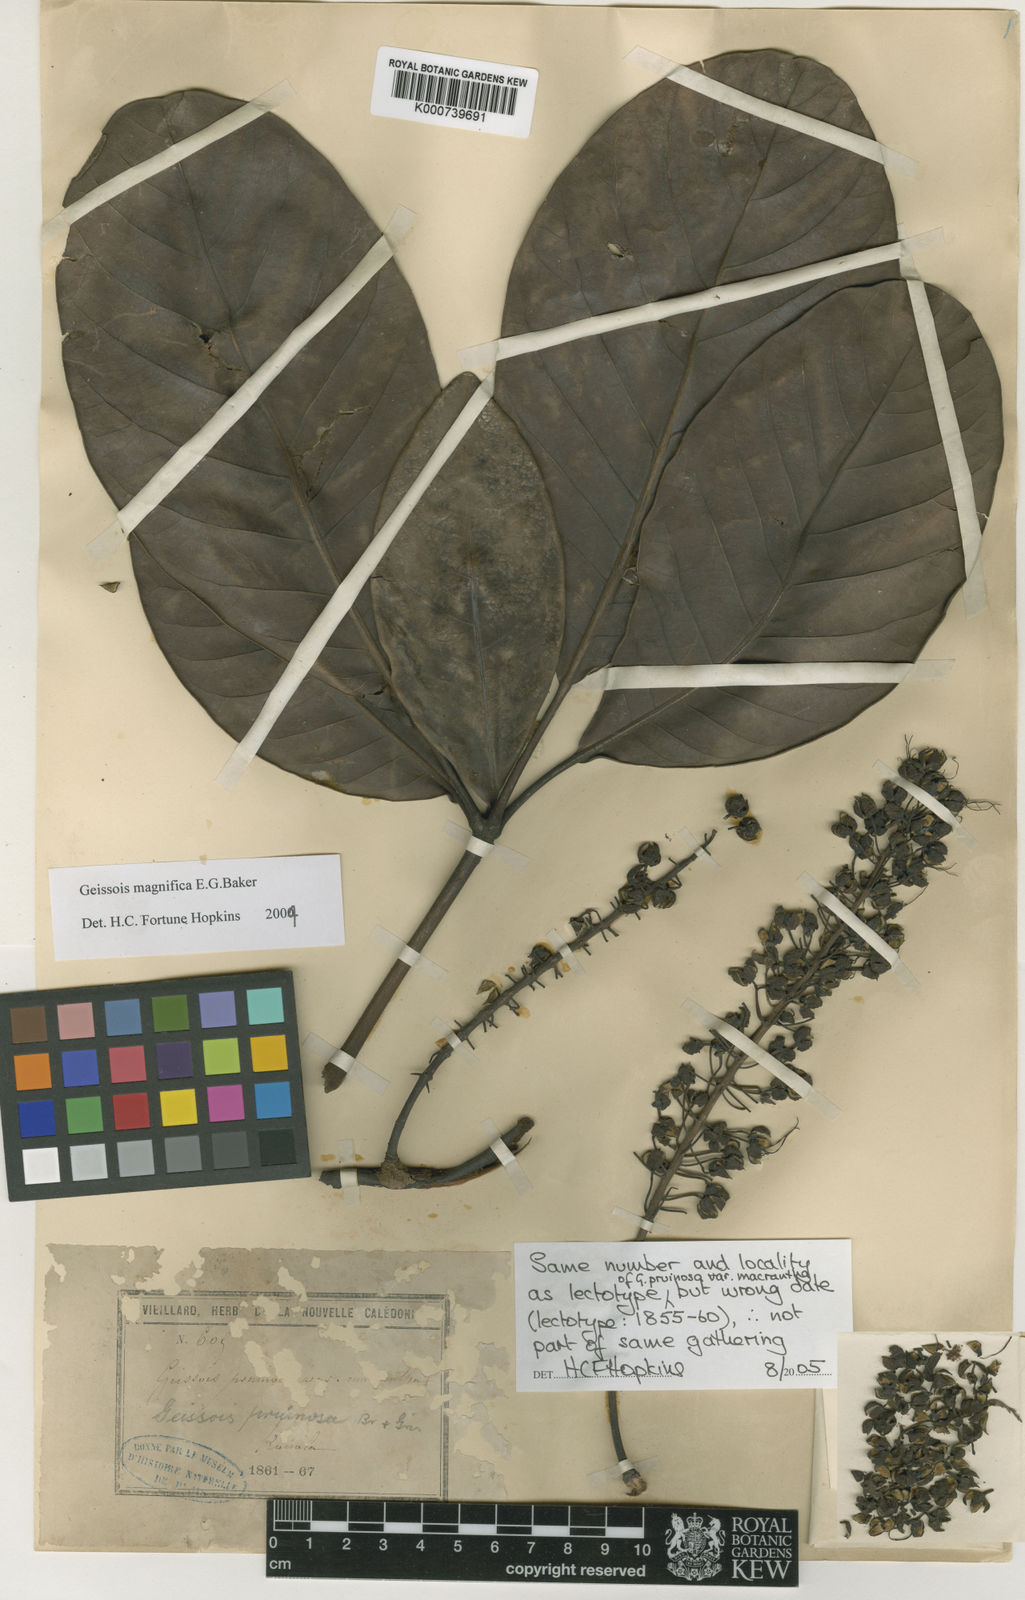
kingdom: Plantae
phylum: Tracheophyta
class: Magnoliopsida
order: Oxalidales
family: Cunoniaceae
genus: Geissois
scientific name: Geissois magnifica
